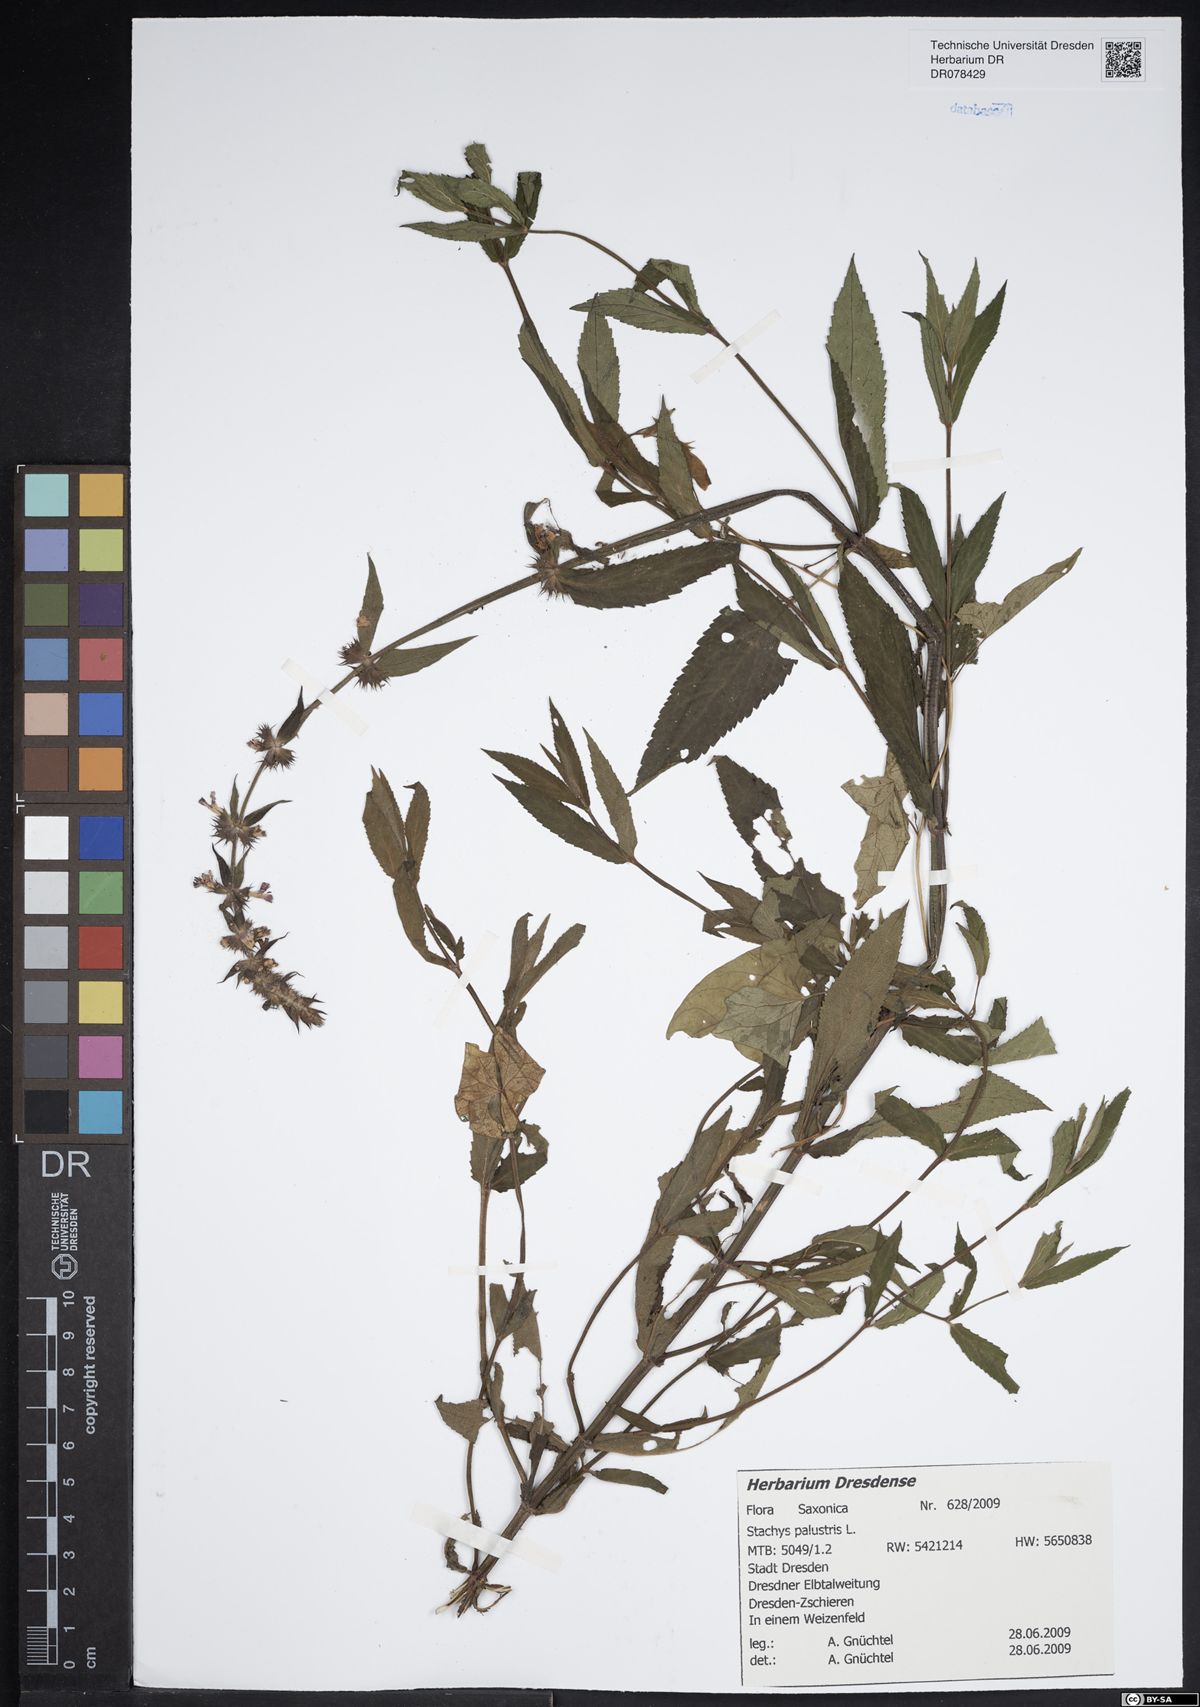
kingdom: Plantae
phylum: Tracheophyta
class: Magnoliopsida
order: Lamiales
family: Lamiaceae
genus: Stachys
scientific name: Stachys palustris
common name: Marsh woundwort
